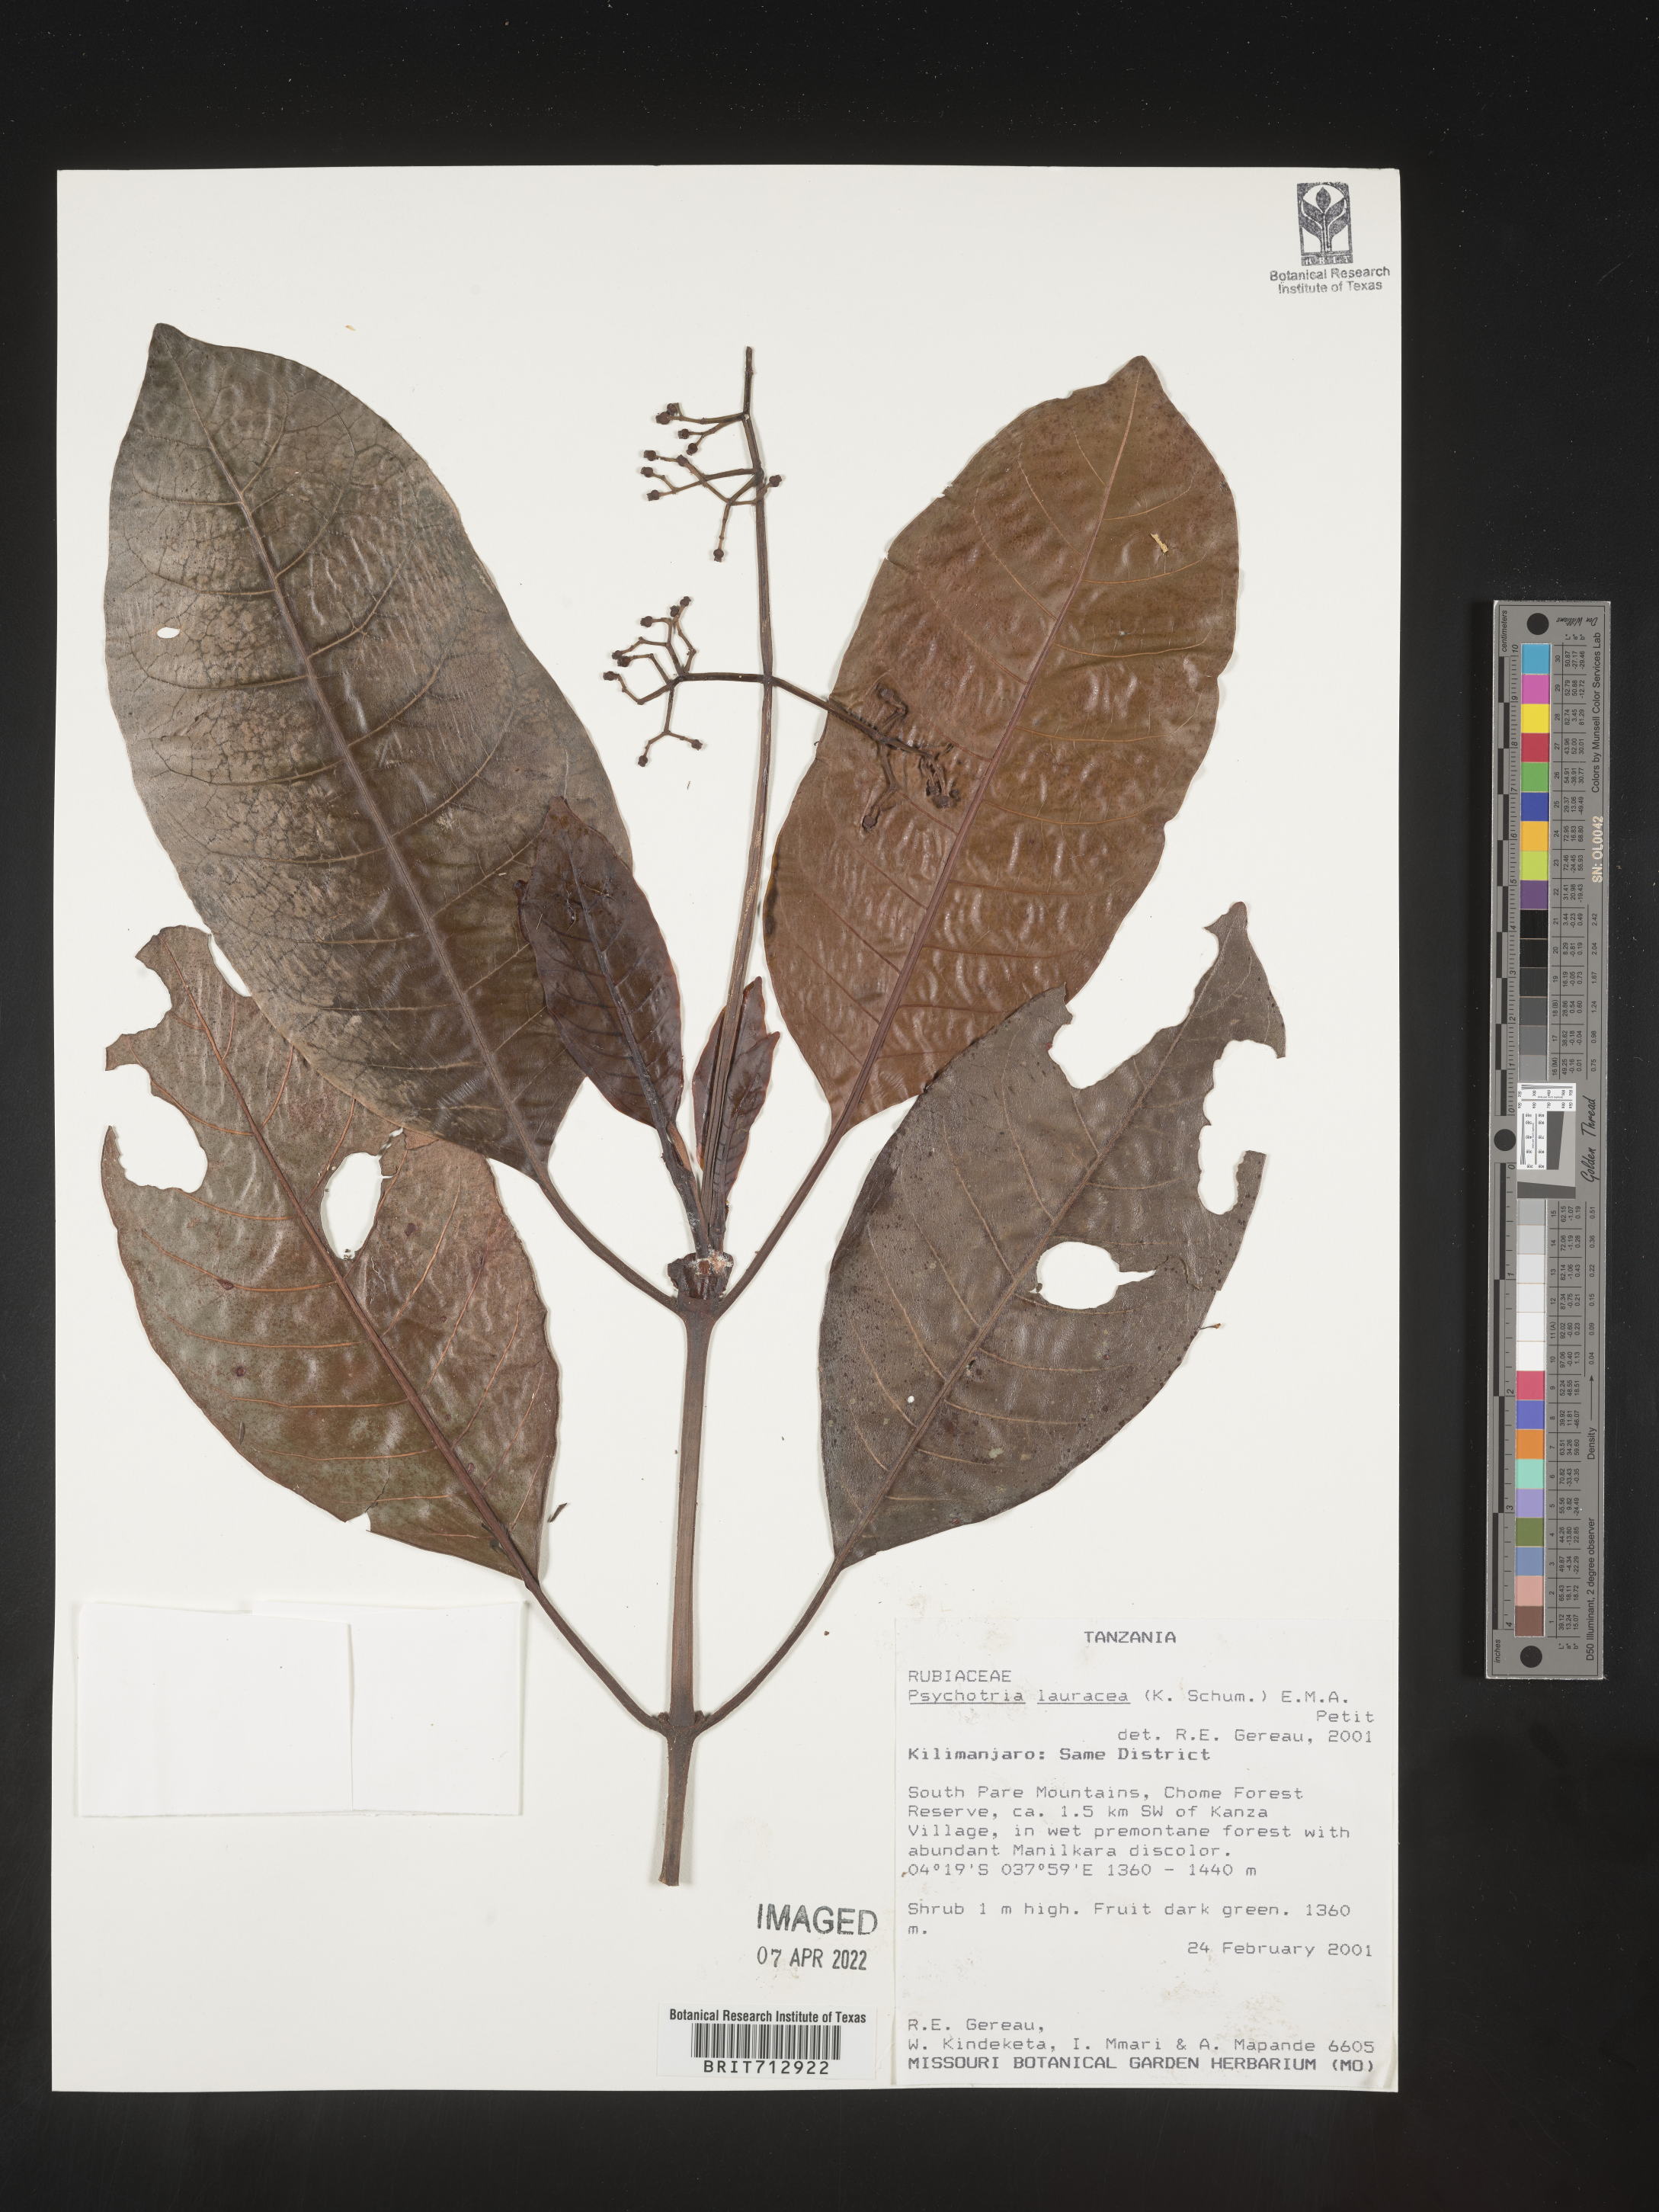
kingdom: Plantae
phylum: Tracheophyta
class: Magnoliopsida
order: Gentianales
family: Rubiaceae
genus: Psychotria
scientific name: Psychotria lauracea
